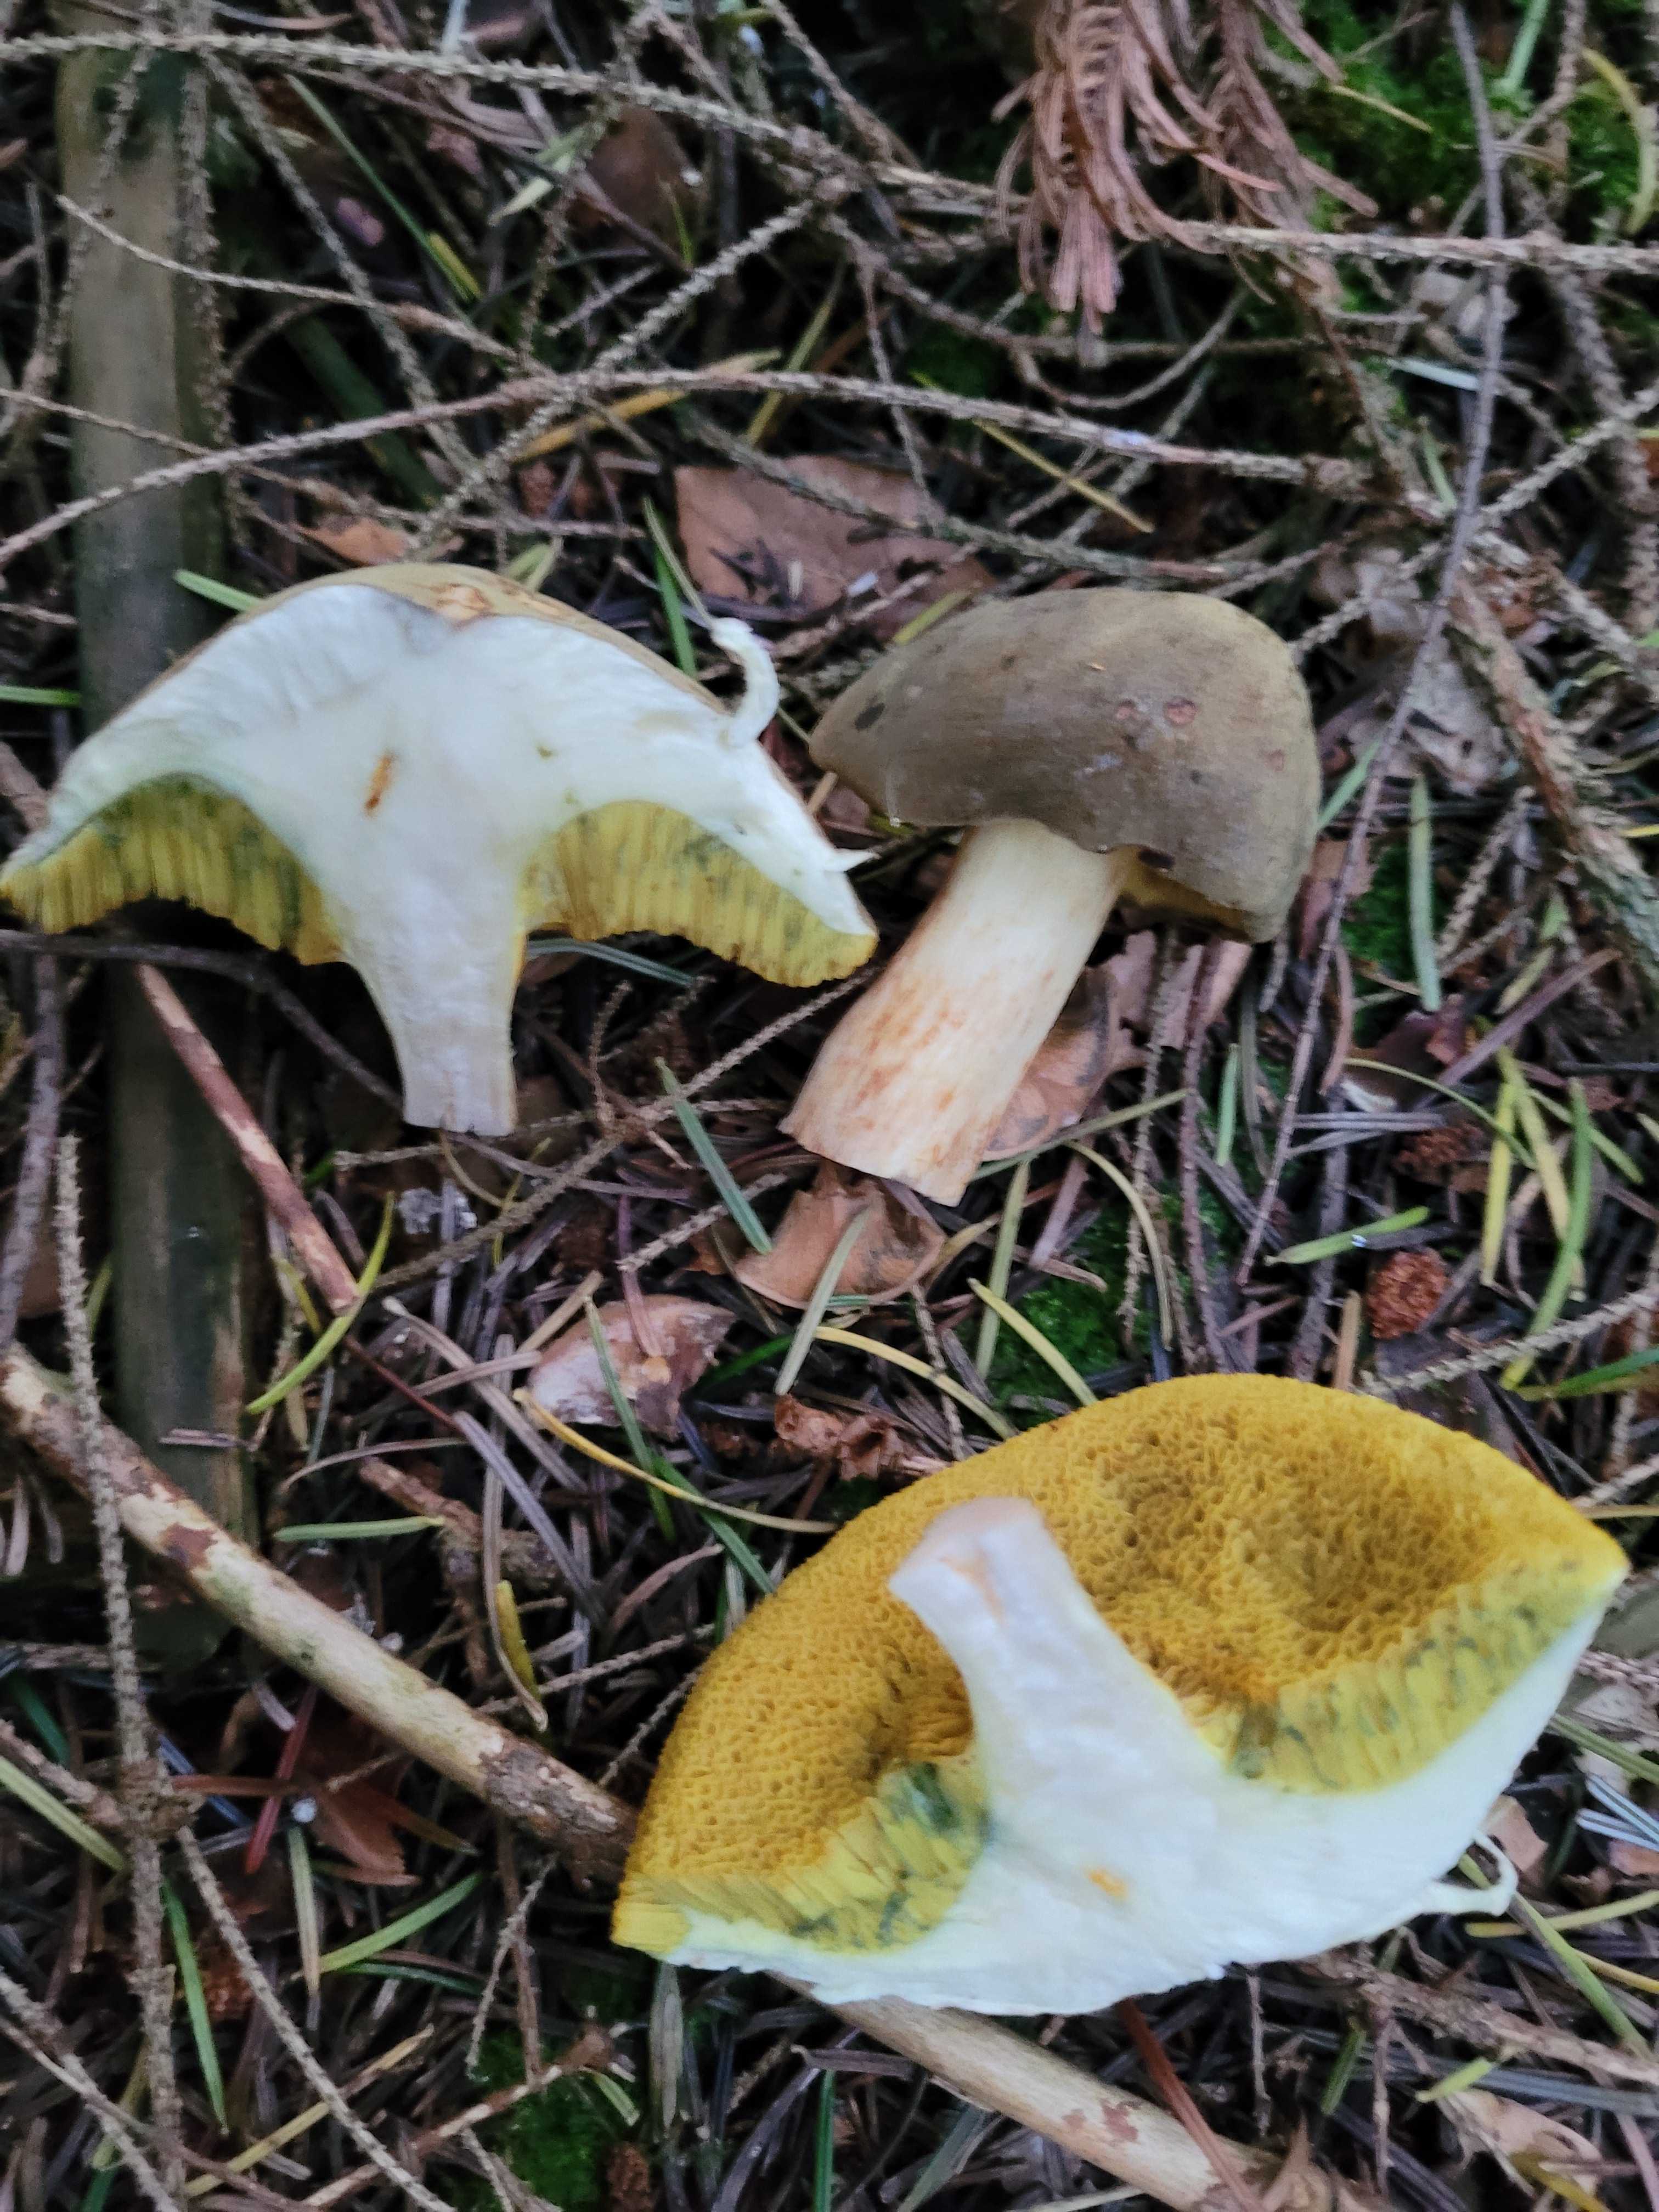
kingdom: Fungi
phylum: Basidiomycota
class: Agaricomycetes
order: Boletales
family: Boletaceae
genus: Xerocomus
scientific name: Xerocomus
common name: filtrørhat
